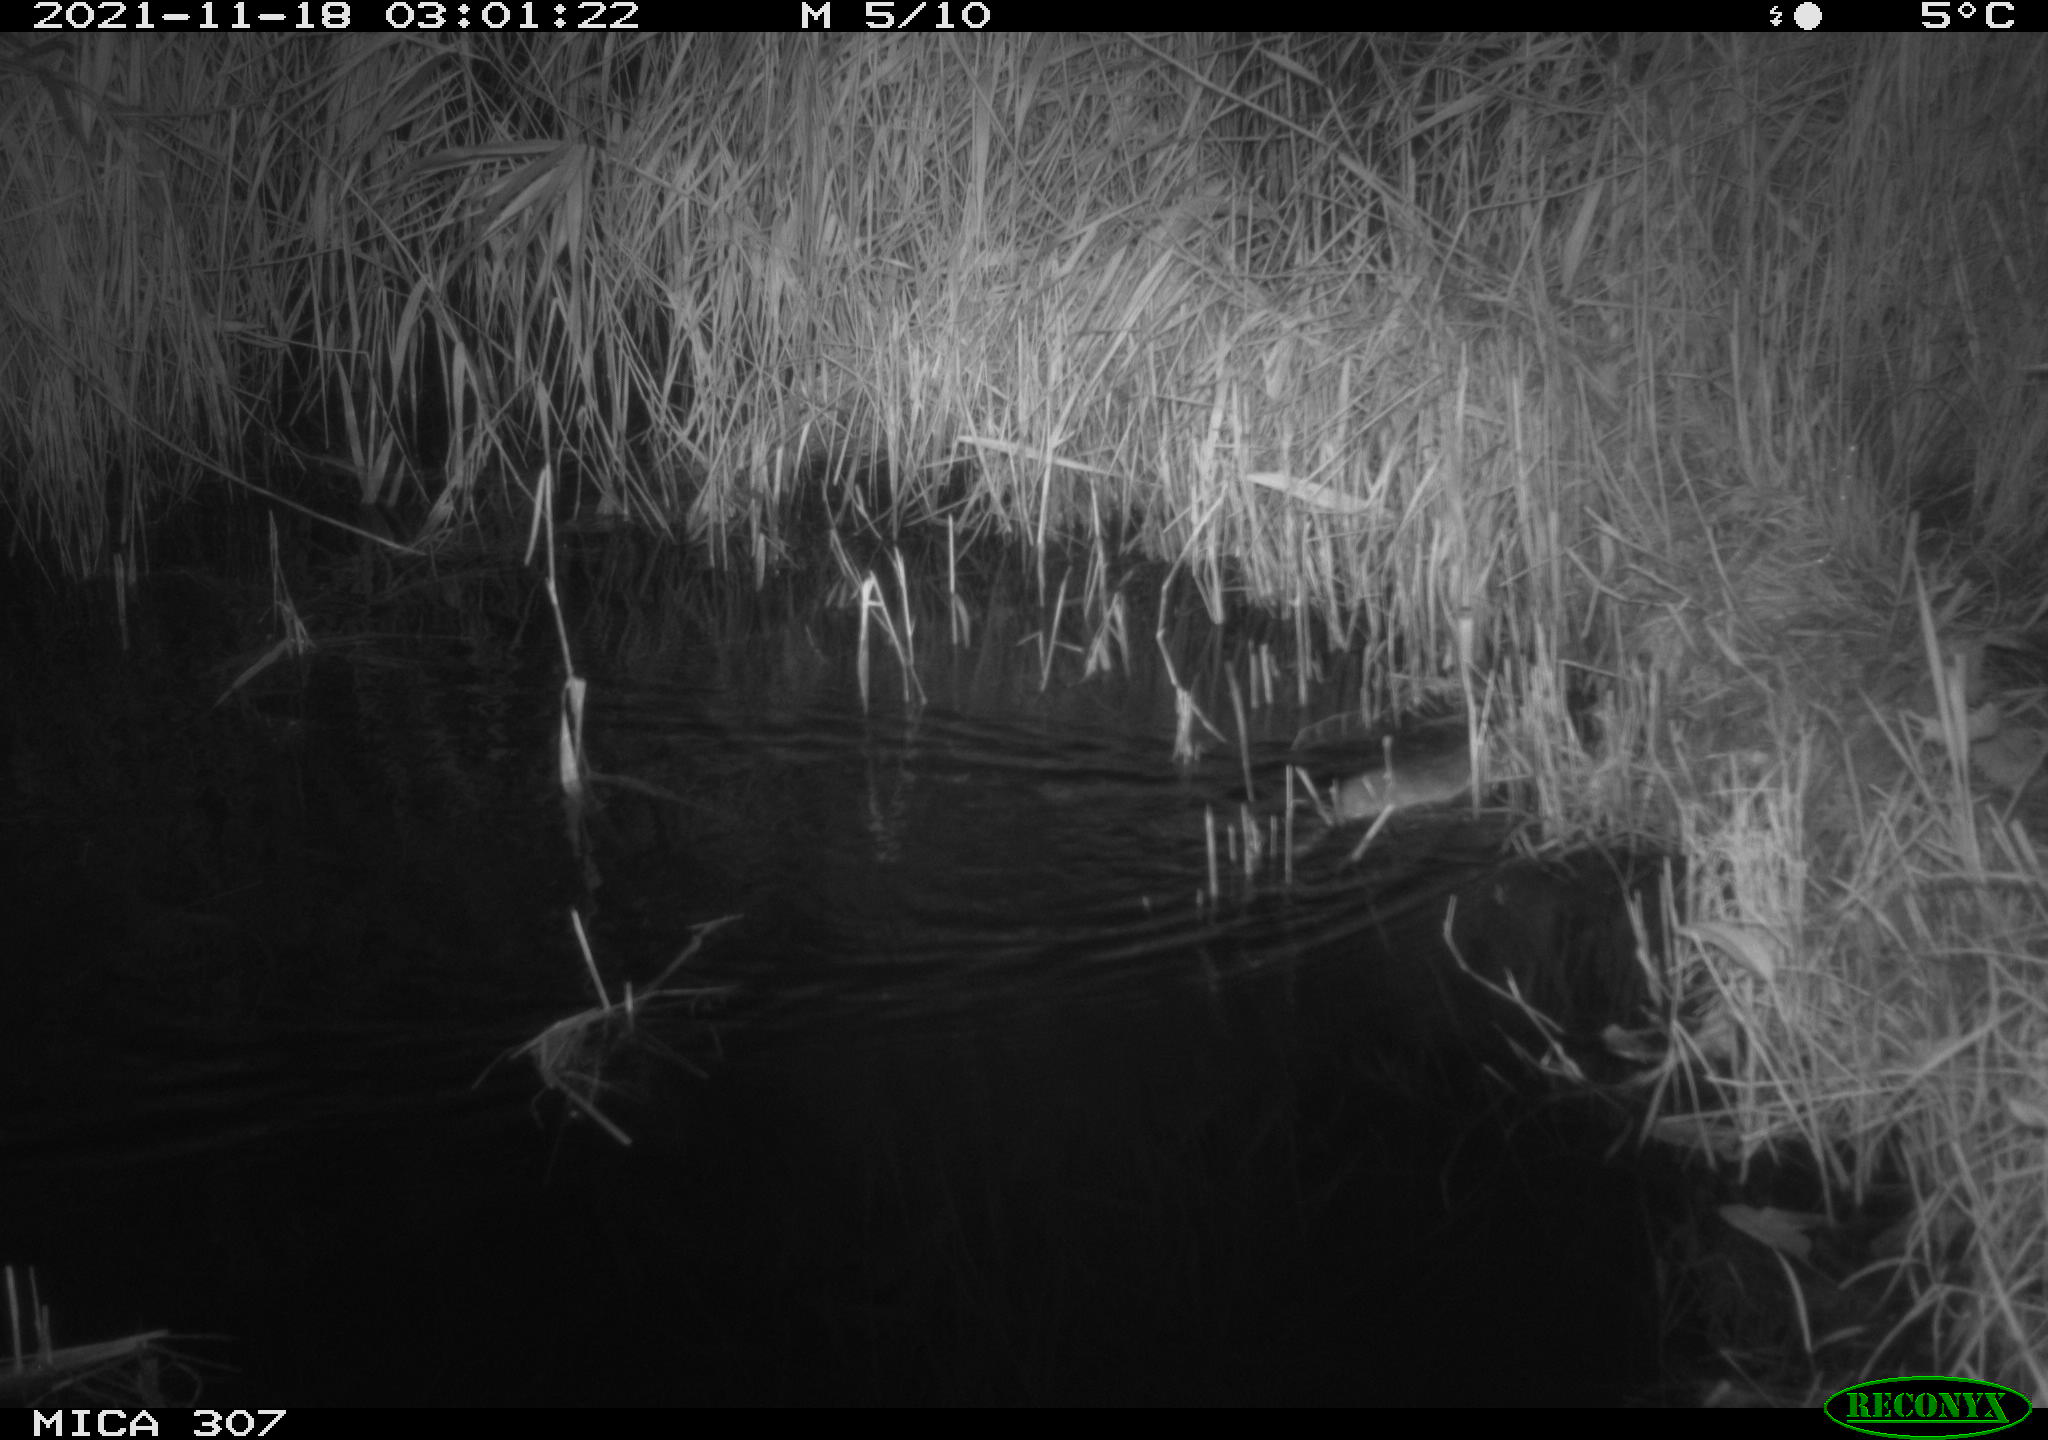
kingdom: Animalia
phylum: Chordata
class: Mammalia
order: Rodentia
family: Muridae
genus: Rattus
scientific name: Rattus norvegicus
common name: Brown rat
